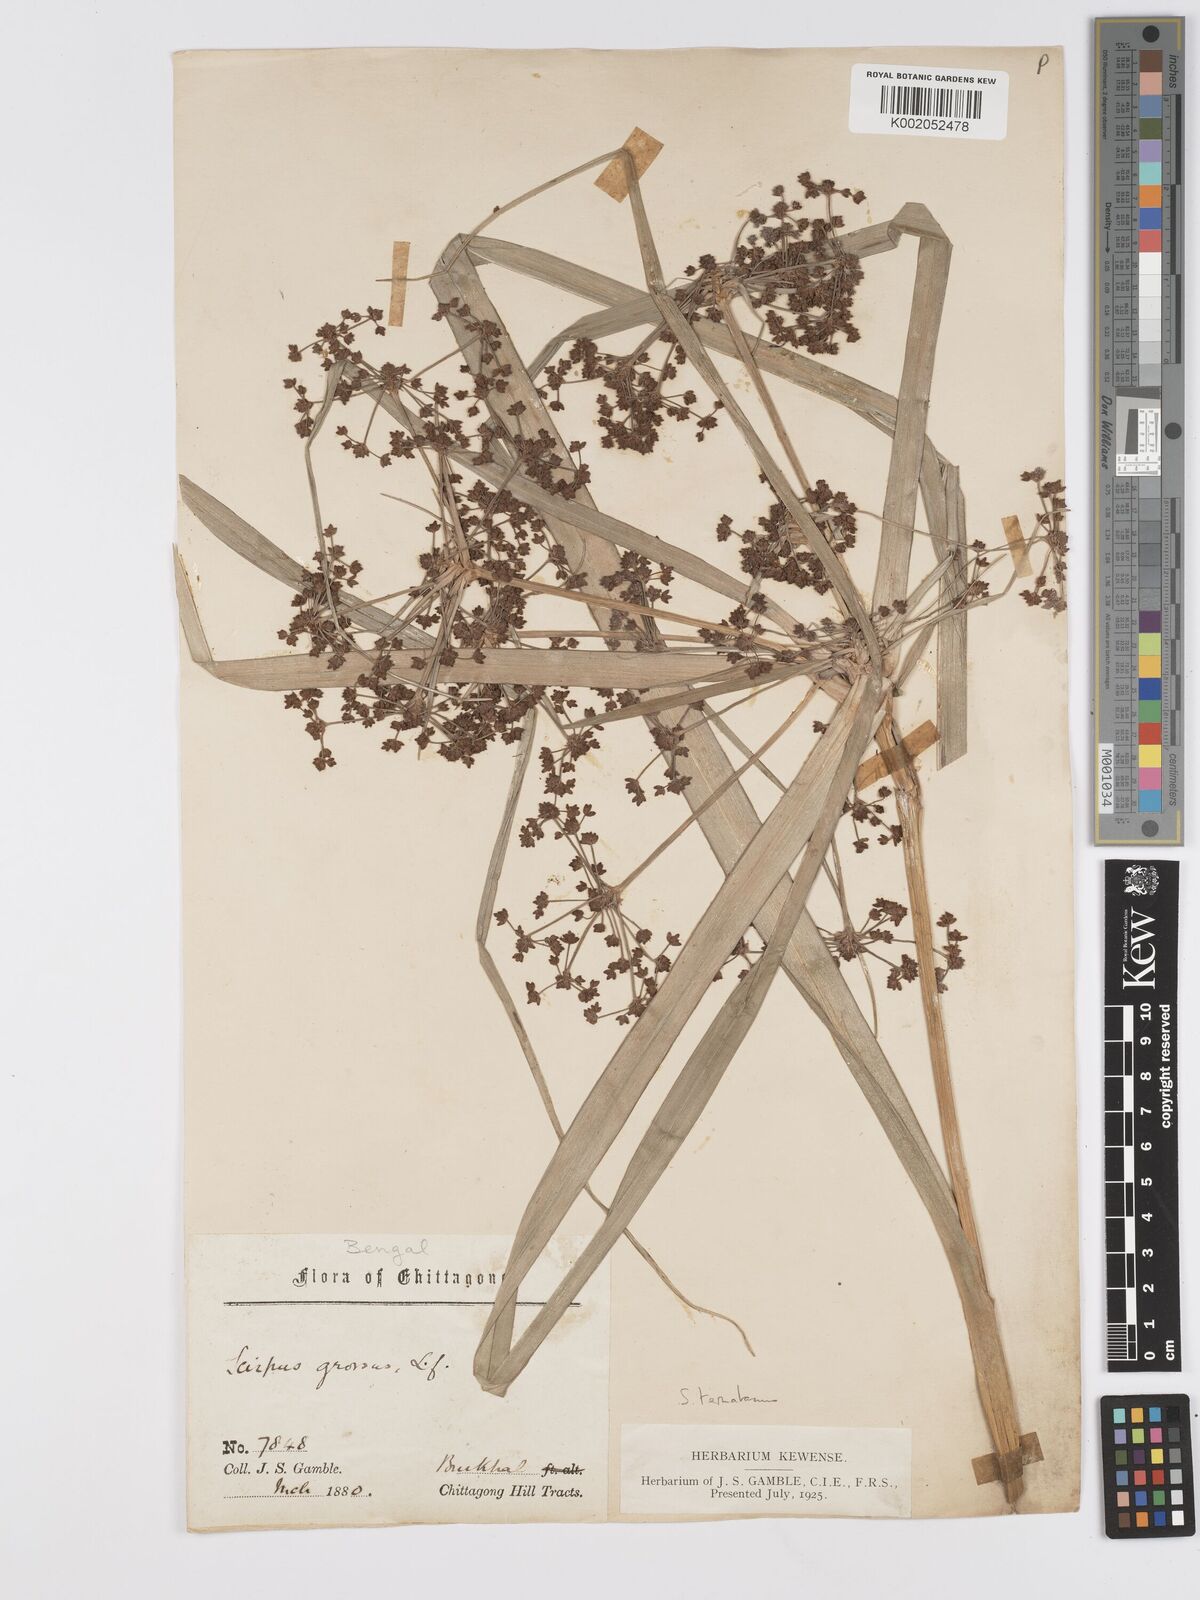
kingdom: Plantae
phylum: Tracheophyta
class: Liliopsida
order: Poales
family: Cyperaceae
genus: Scirpus
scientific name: Scirpus ternatanus
